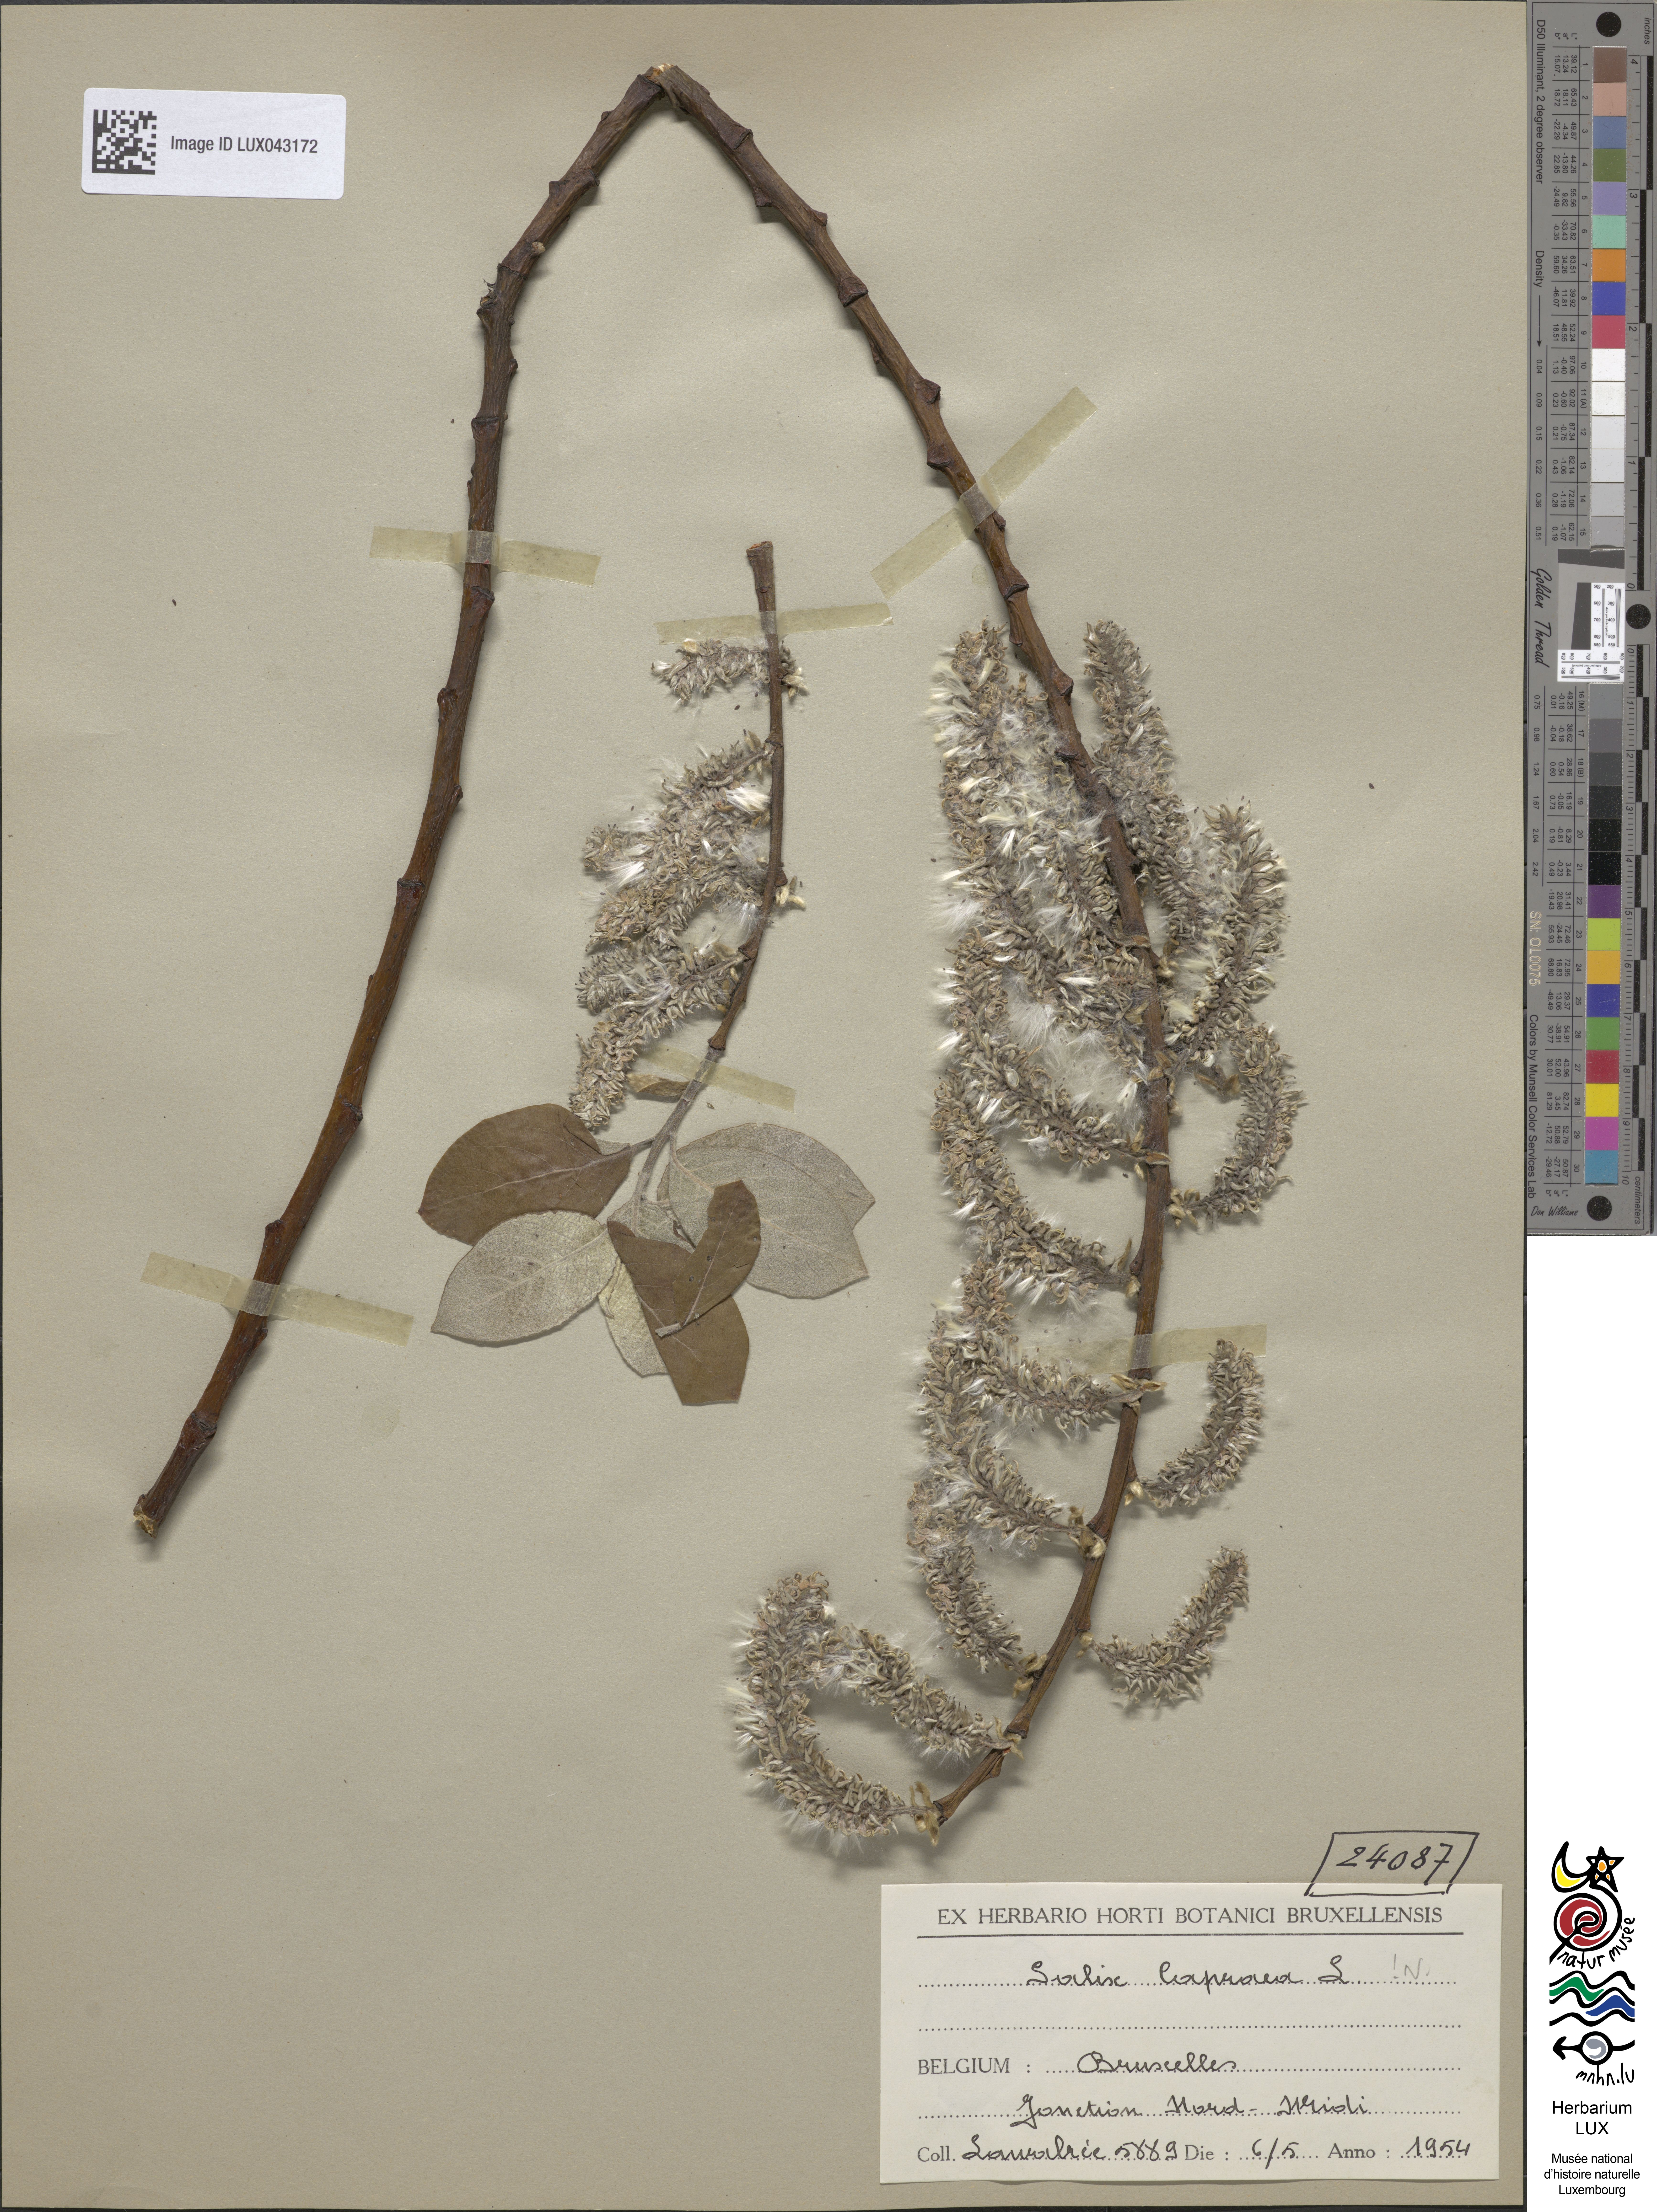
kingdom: Plantae
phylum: Tracheophyta
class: Magnoliopsida
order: Malpighiales
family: Salicaceae
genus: Salix
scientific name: Salix caprea
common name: Goat willow
